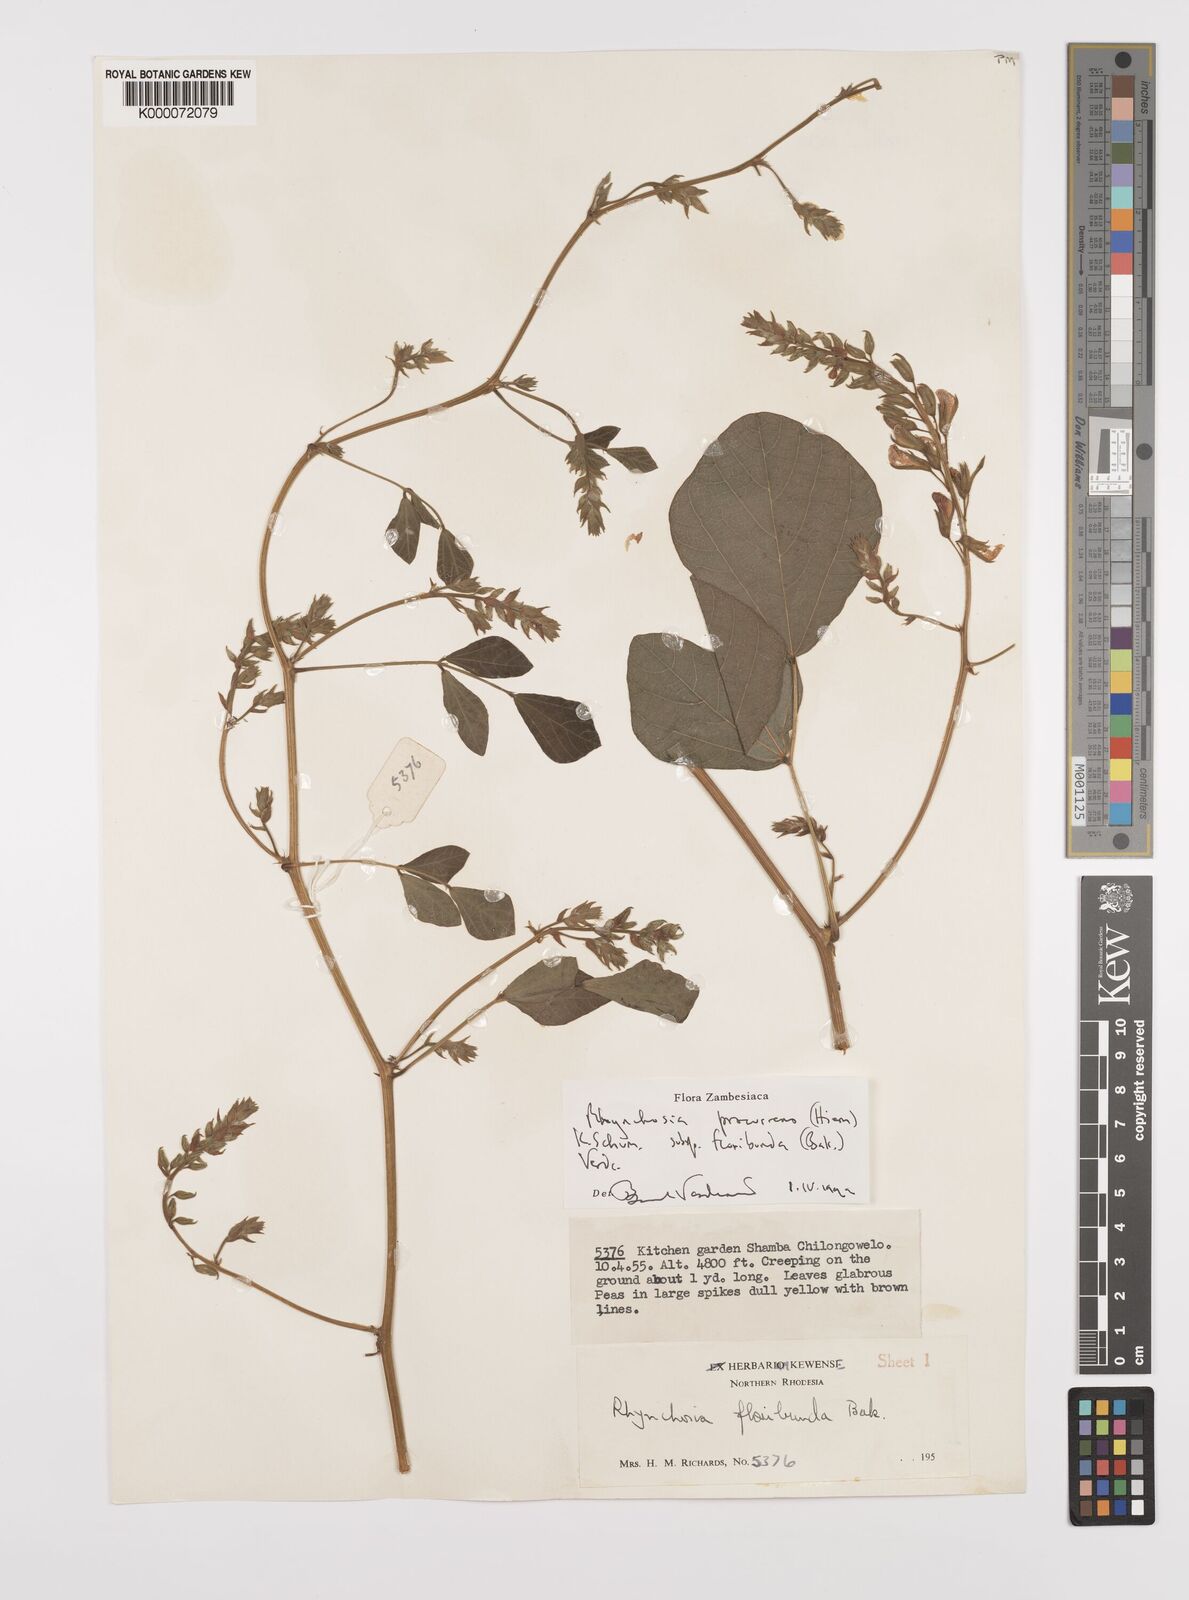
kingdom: Plantae
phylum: Tracheophyta
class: Magnoliopsida
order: Fabales
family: Fabaceae
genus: Rhynchosia
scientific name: Rhynchosia procurrens
